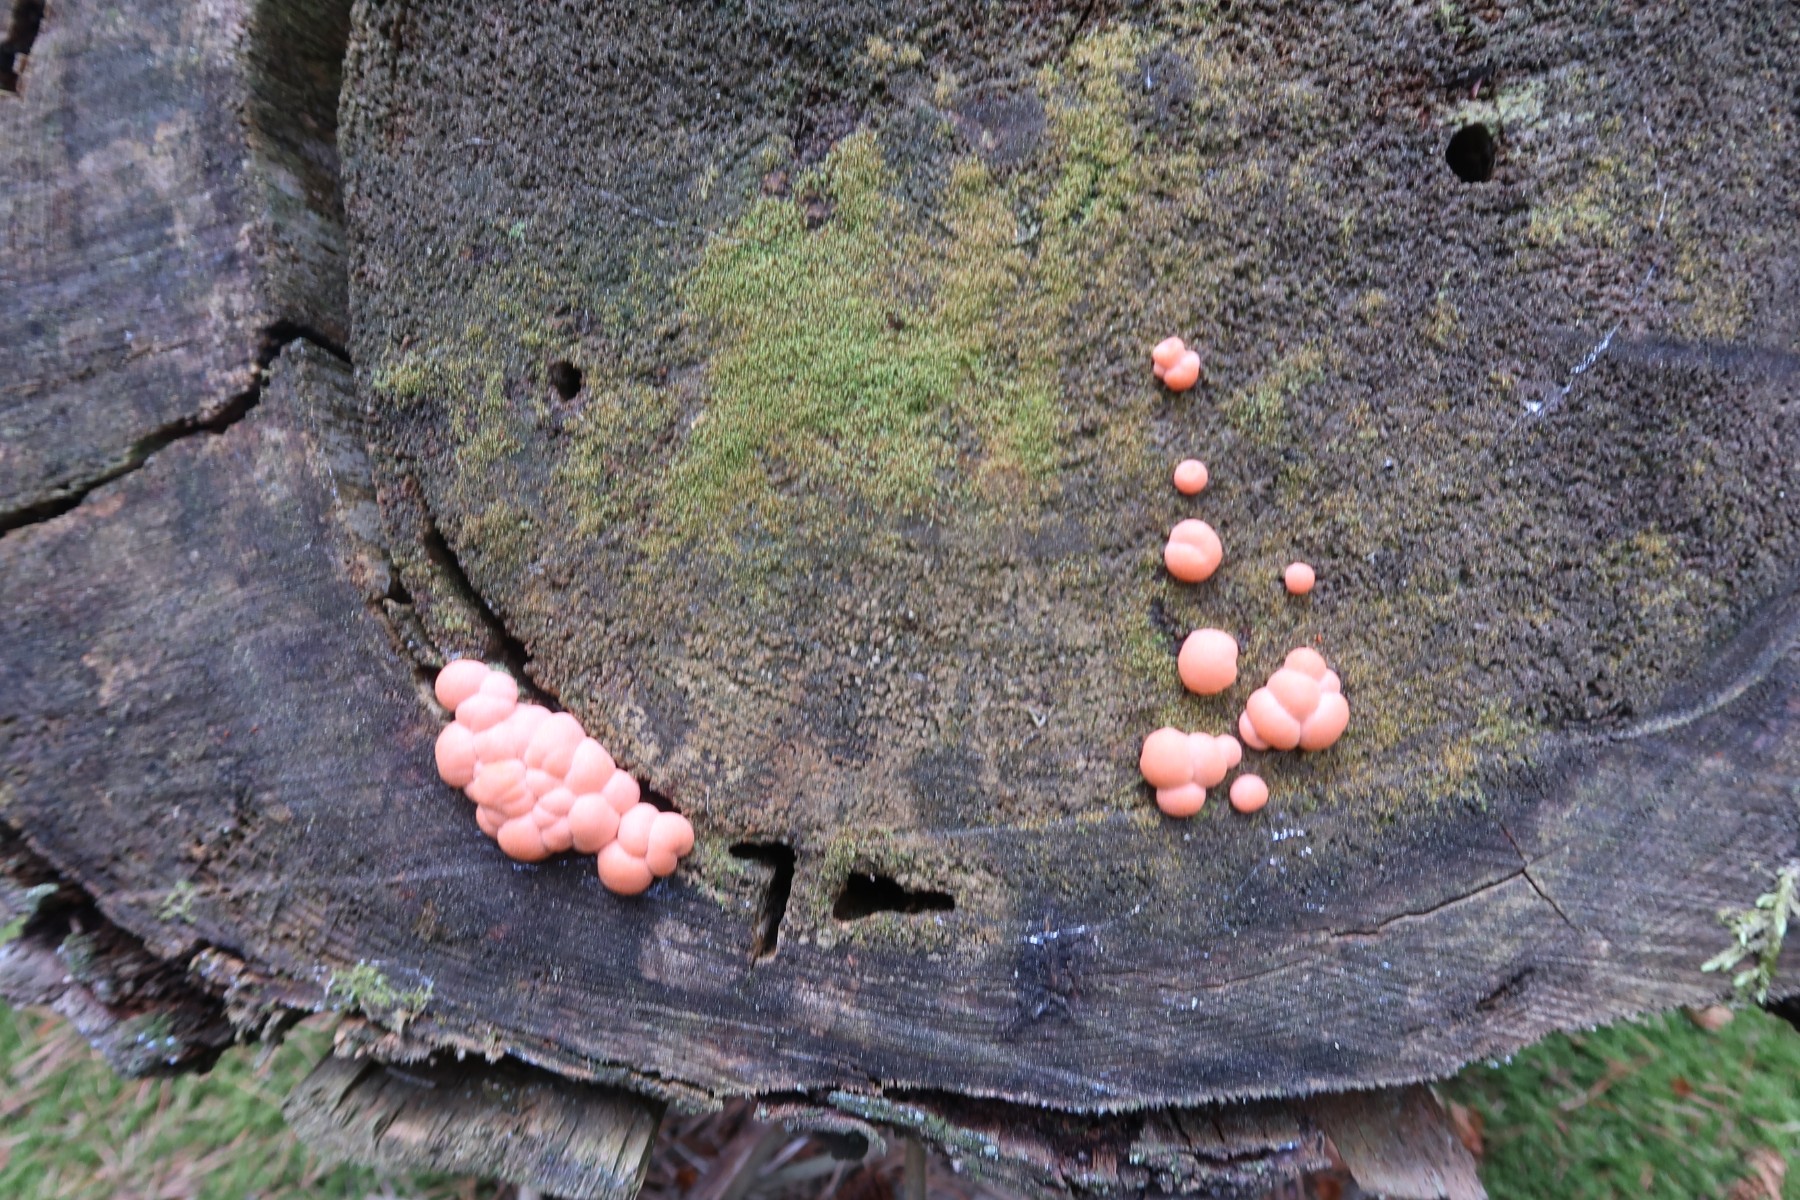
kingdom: Protozoa
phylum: Mycetozoa
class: Myxomycetes
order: Cribrariales
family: Tubiferaceae
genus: Lycogala
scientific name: Lycogala epidendrum
